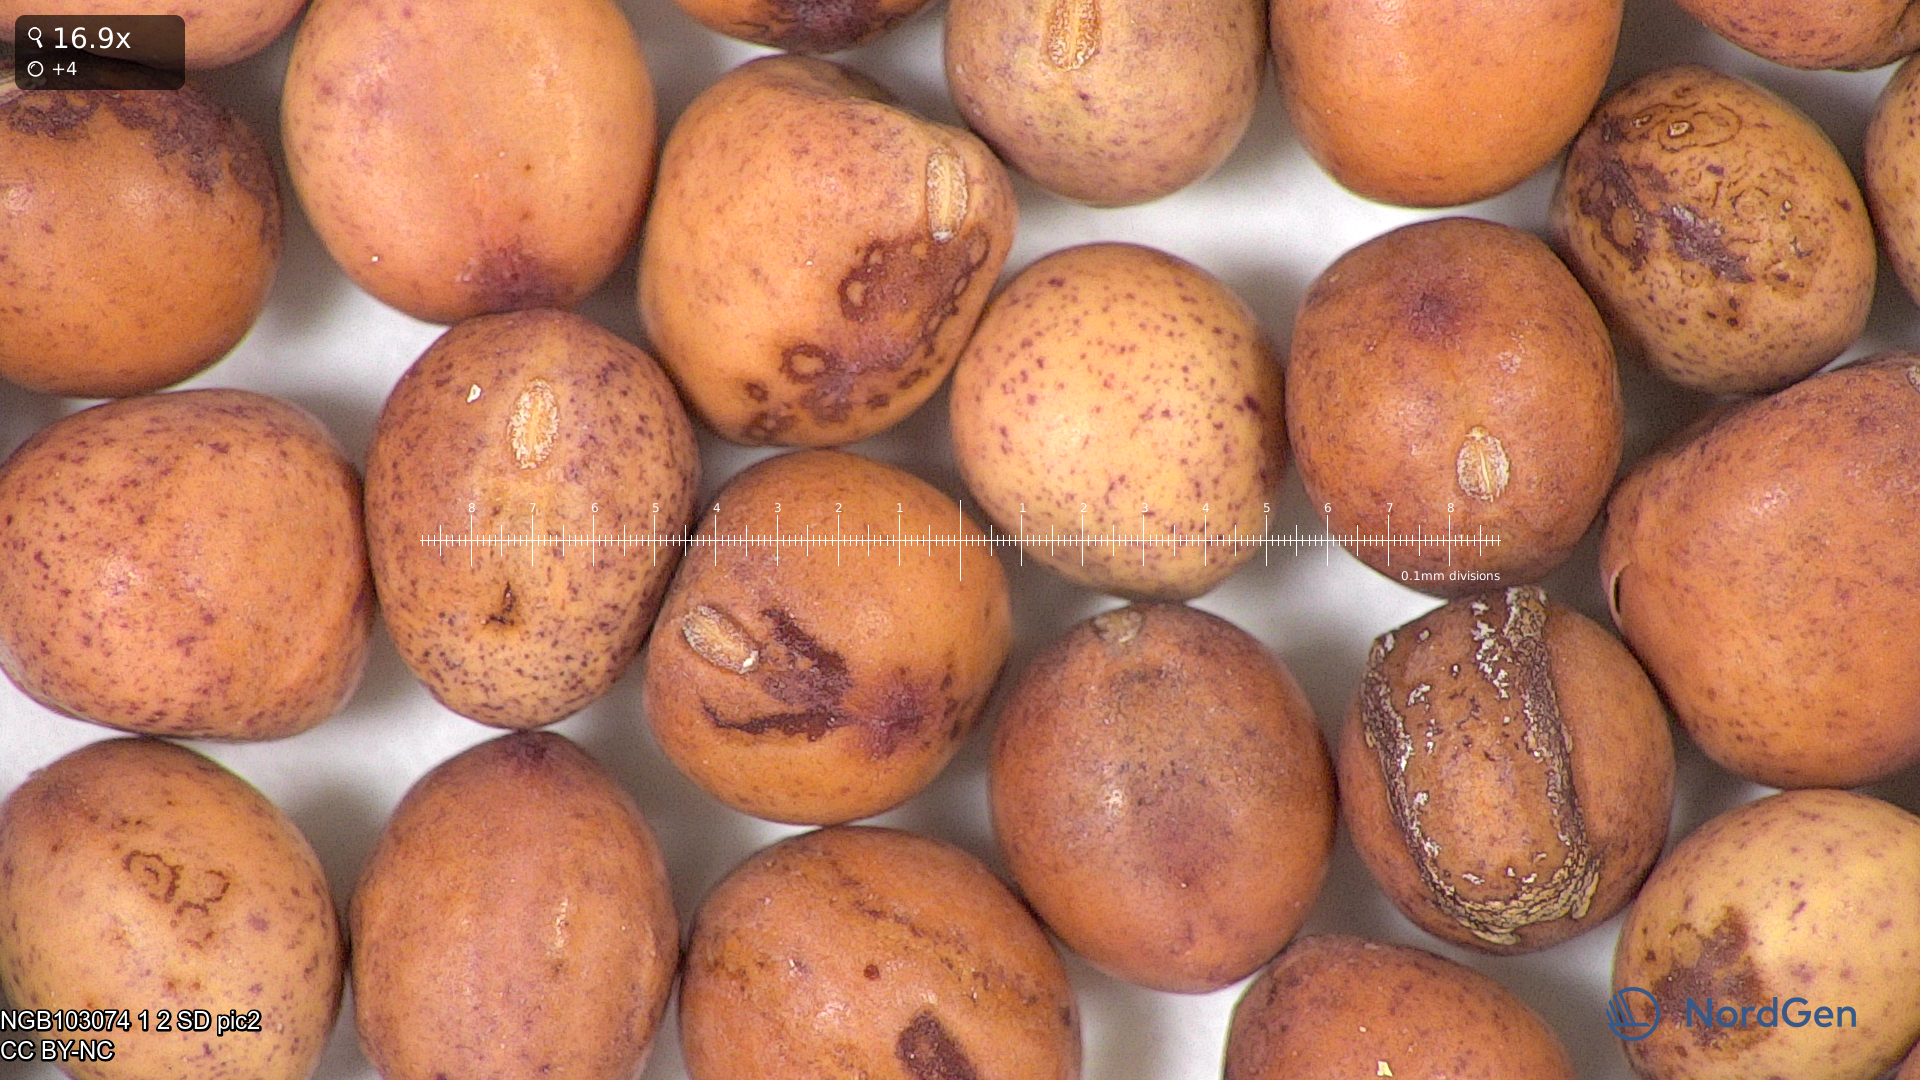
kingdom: Plantae
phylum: Tracheophyta
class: Magnoliopsida
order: Fabales
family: Fabaceae
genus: Lathyrus
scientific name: Lathyrus oleraceus
